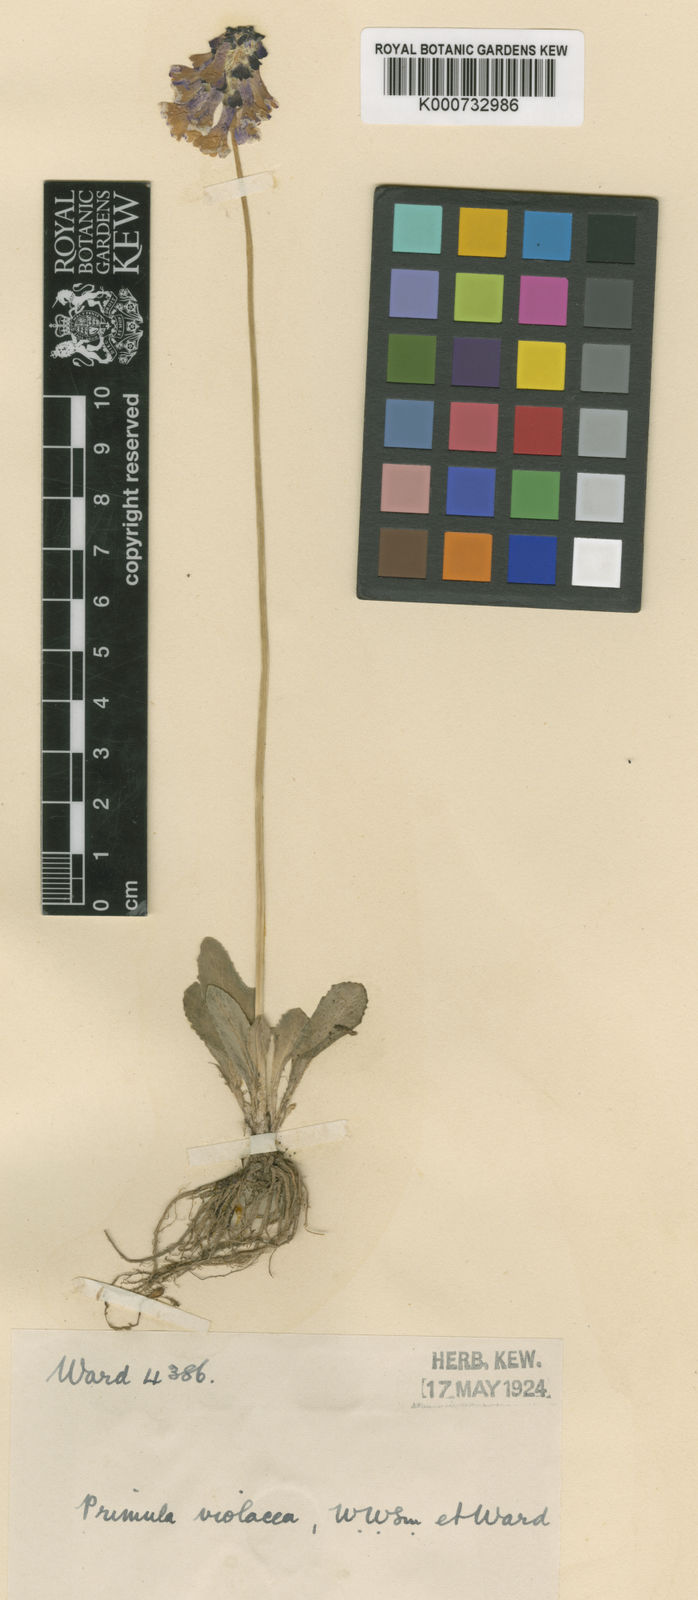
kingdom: Plantae
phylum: Tracheophyta
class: Magnoliopsida
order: Ericales
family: Primulaceae
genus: Primula
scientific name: Primula violacea
